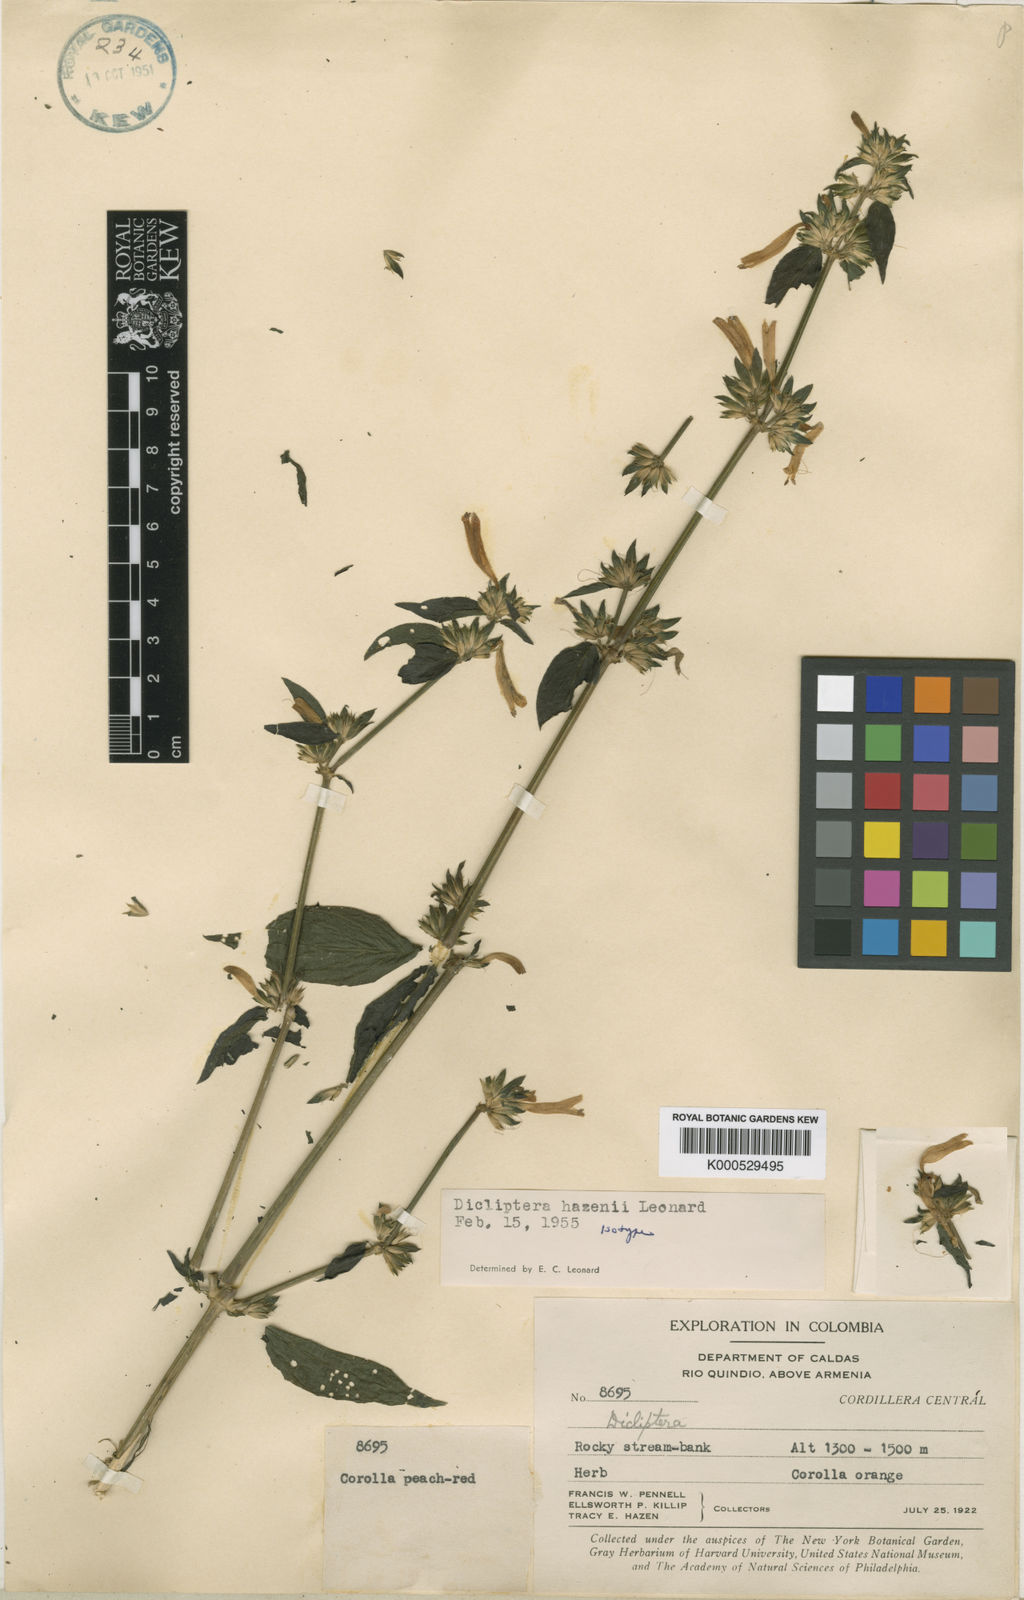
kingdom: Plantae
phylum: Tracheophyta
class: Magnoliopsida
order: Lamiales
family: Acanthaceae
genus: Dicliptera
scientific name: Dicliptera scandens
